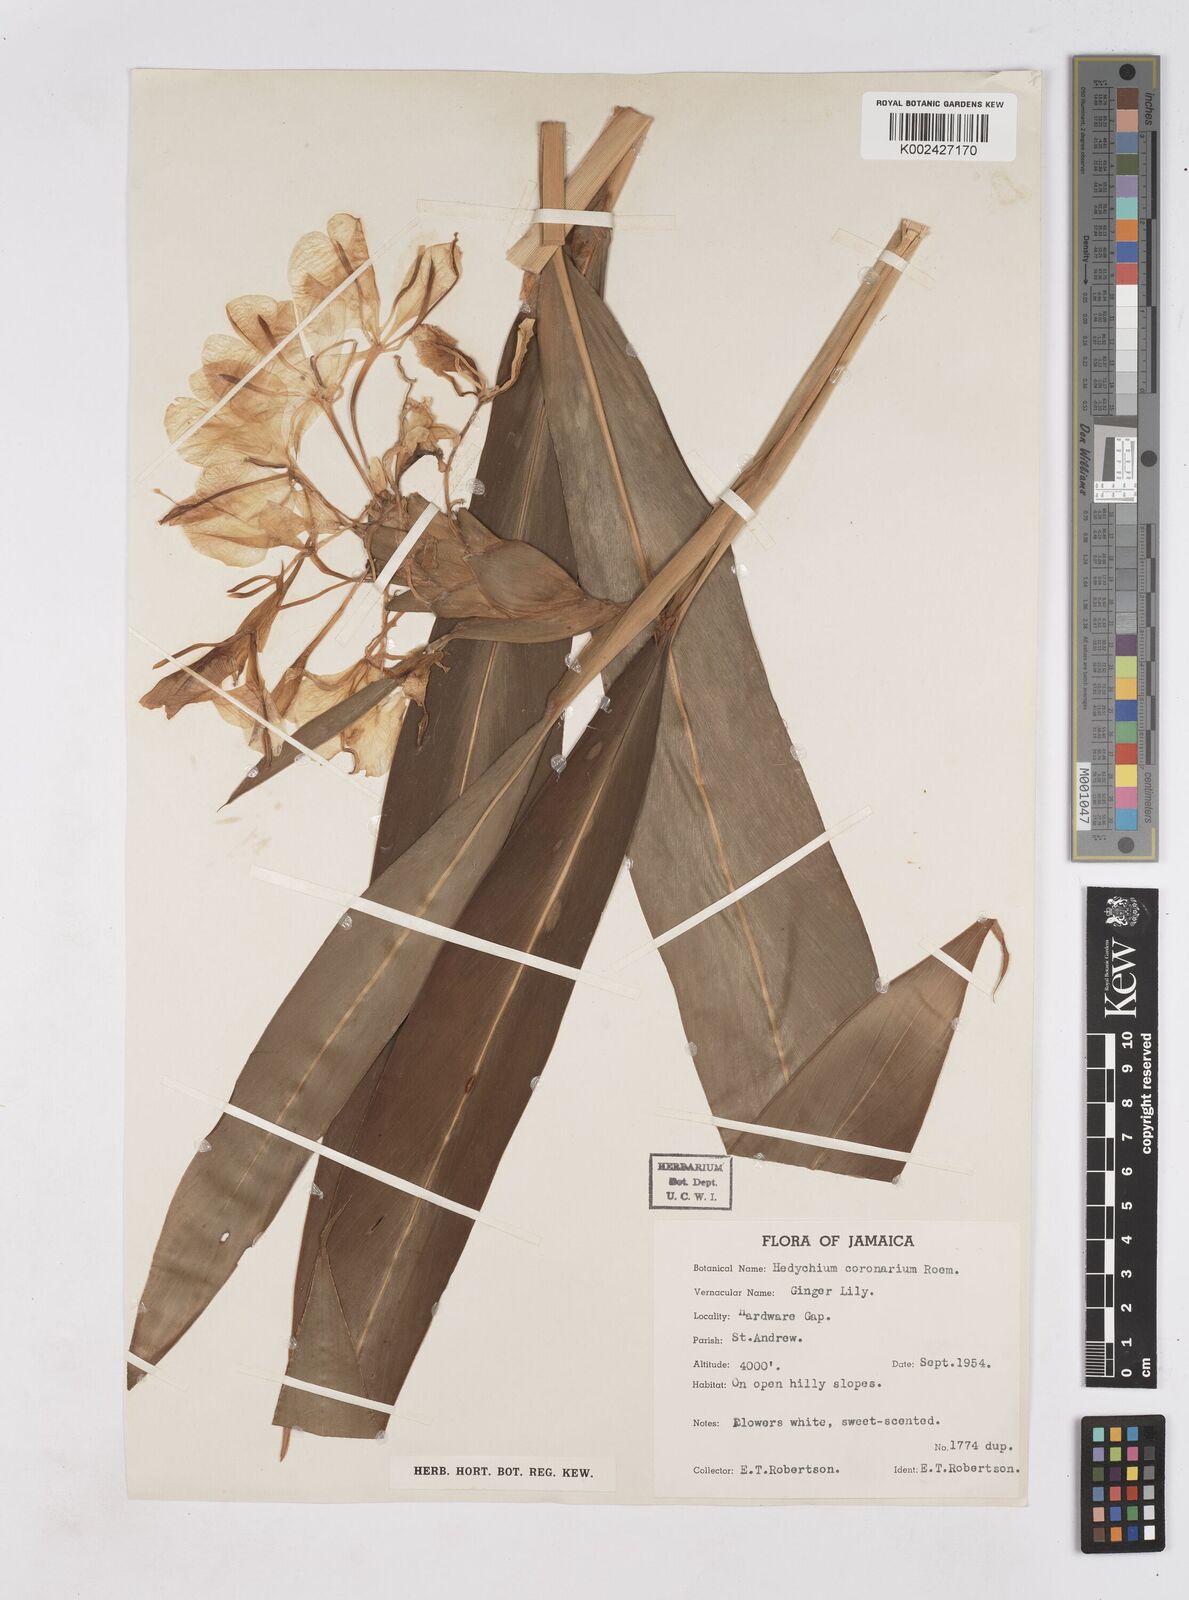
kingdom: Plantae
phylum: Tracheophyta
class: Liliopsida
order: Zingiberales
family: Zingiberaceae
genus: Hedychium
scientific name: Hedychium coronarium
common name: White garland-lily
